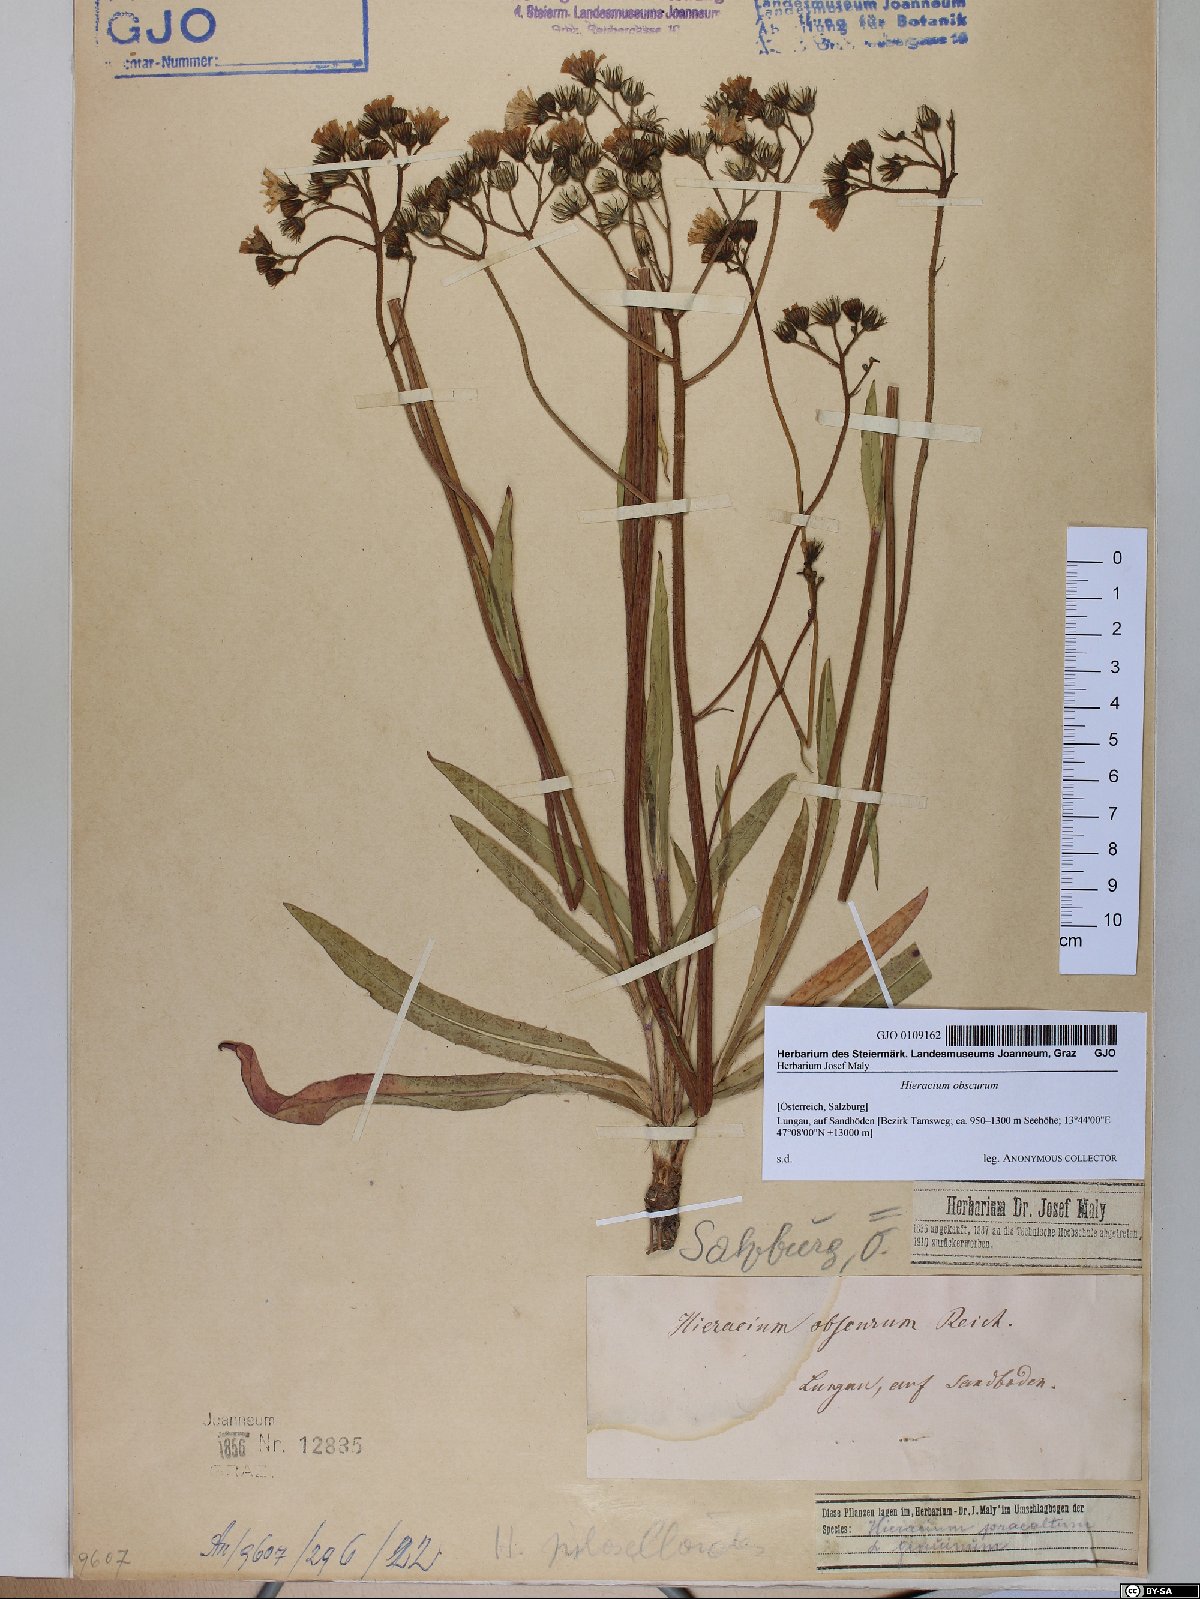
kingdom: Plantae
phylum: Tracheophyta
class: Magnoliopsida
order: Asterales
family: Asteraceae
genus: Pilosella
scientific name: Pilosella piloselloides
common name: Glaucous king-devil
